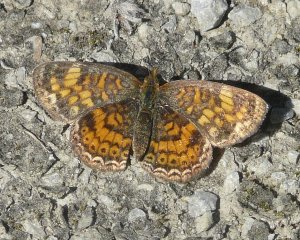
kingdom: Animalia
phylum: Arthropoda
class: Insecta
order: Lepidoptera
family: Nymphalidae
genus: Phyciodes
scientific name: Phyciodes tharos
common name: Pearl Crescent
